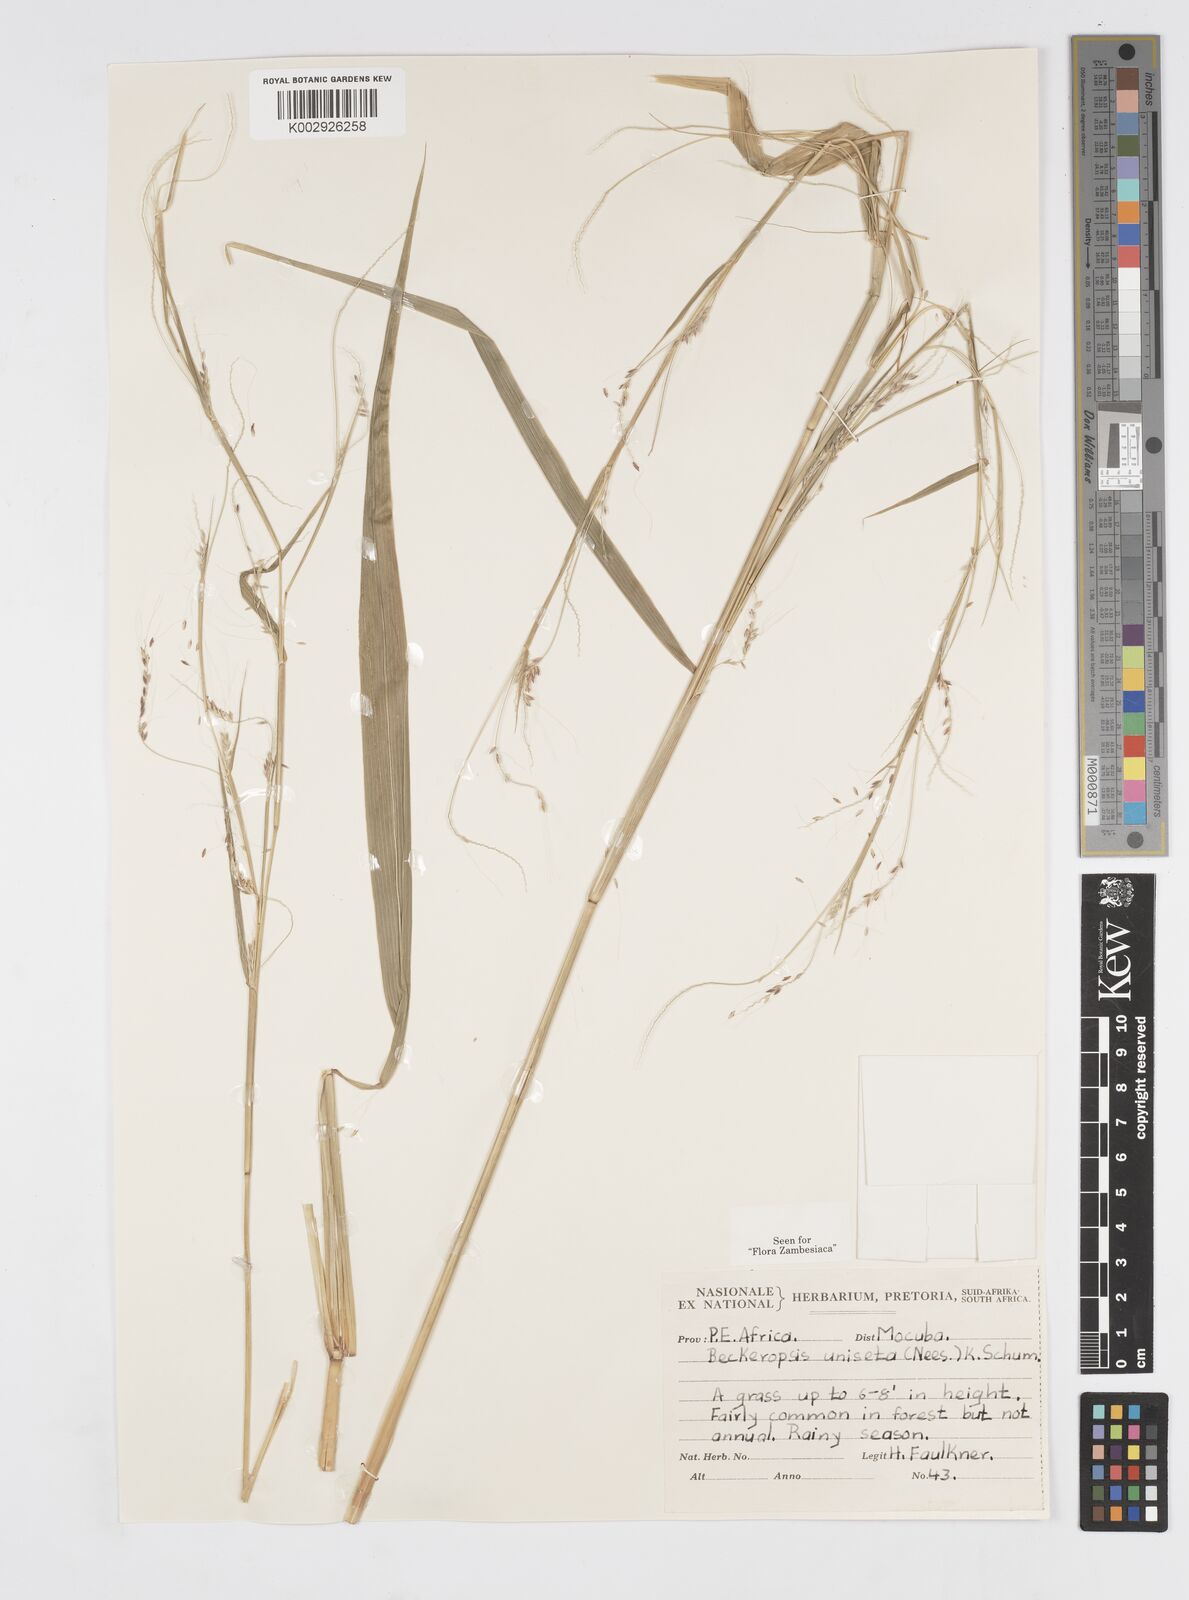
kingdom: Plantae
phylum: Tracheophyta
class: Liliopsida
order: Poales
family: Poaceae
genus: Cenchrus
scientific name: Cenchrus unisetus
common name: Natal grass
